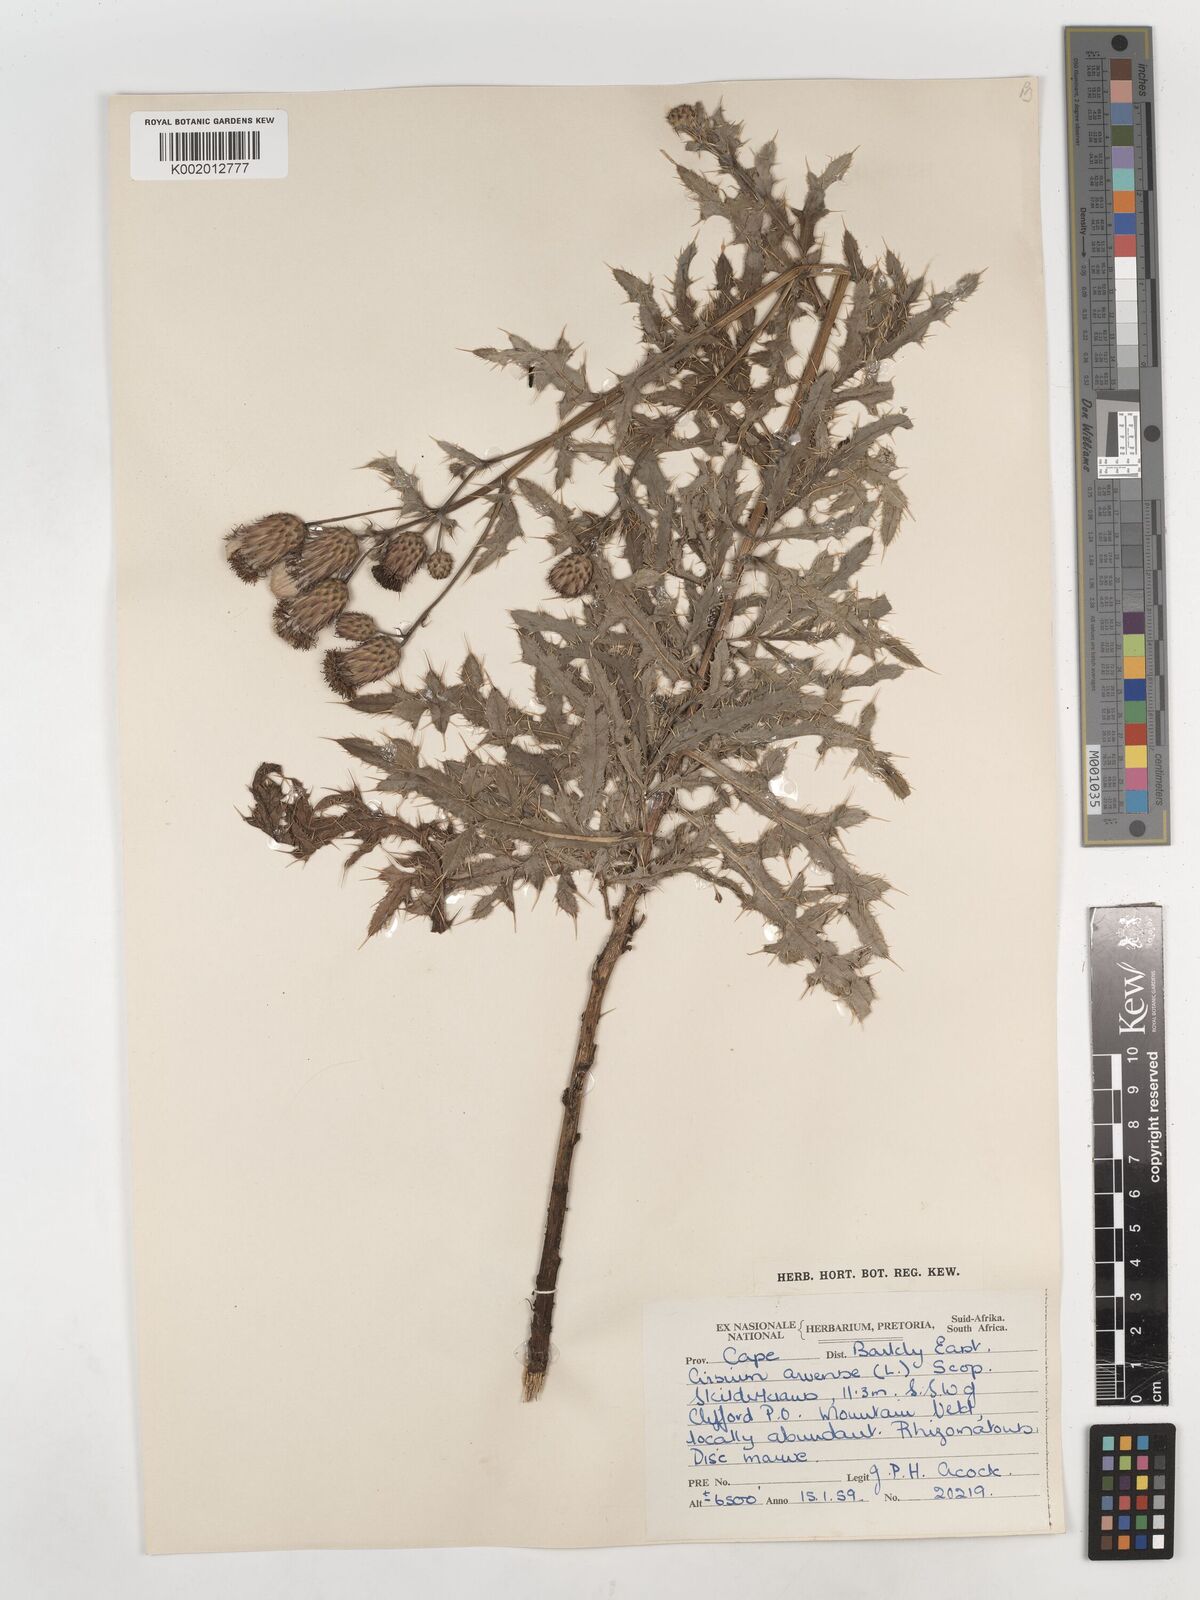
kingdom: Plantae
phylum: Tracheophyta
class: Magnoliopsida
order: Asterales
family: Asteraceae
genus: Cirsium
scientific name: Cirsium arvense
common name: Creeping thistle
